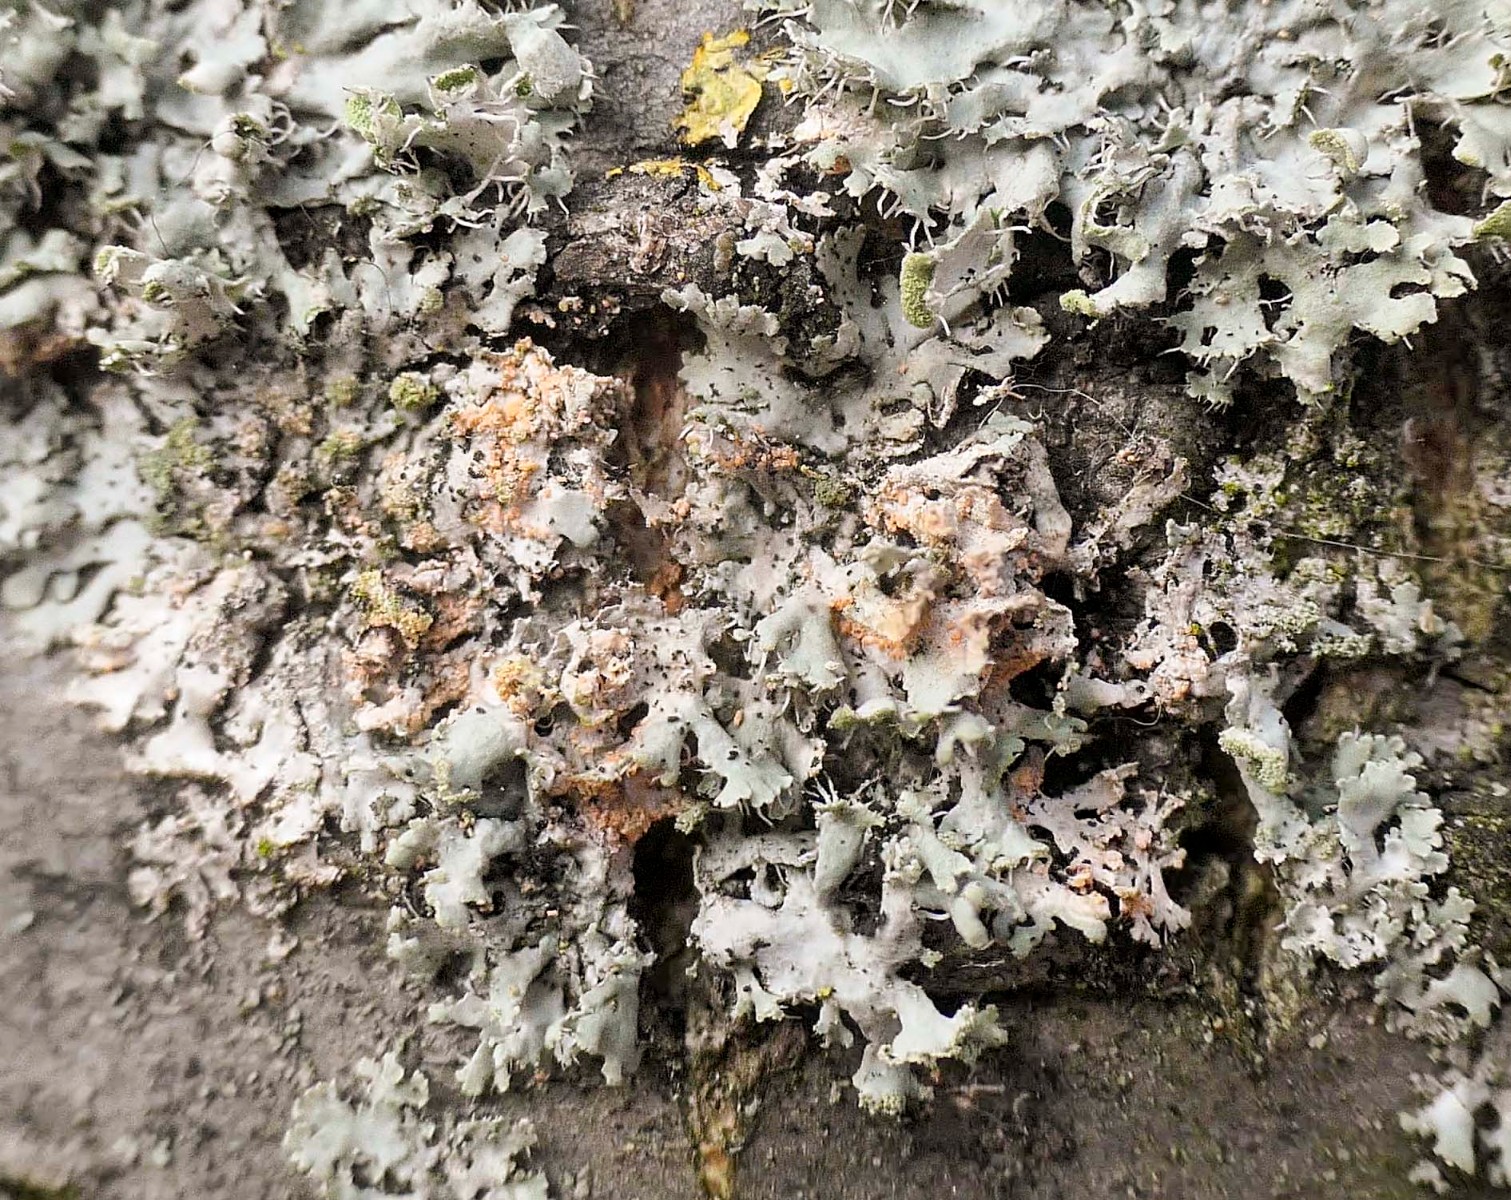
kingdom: Fungi
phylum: Basidiomycota
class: Agaricomycetes
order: Corticiales
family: Corticiaceae
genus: Erythricium
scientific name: Erythricium aurantiacum
